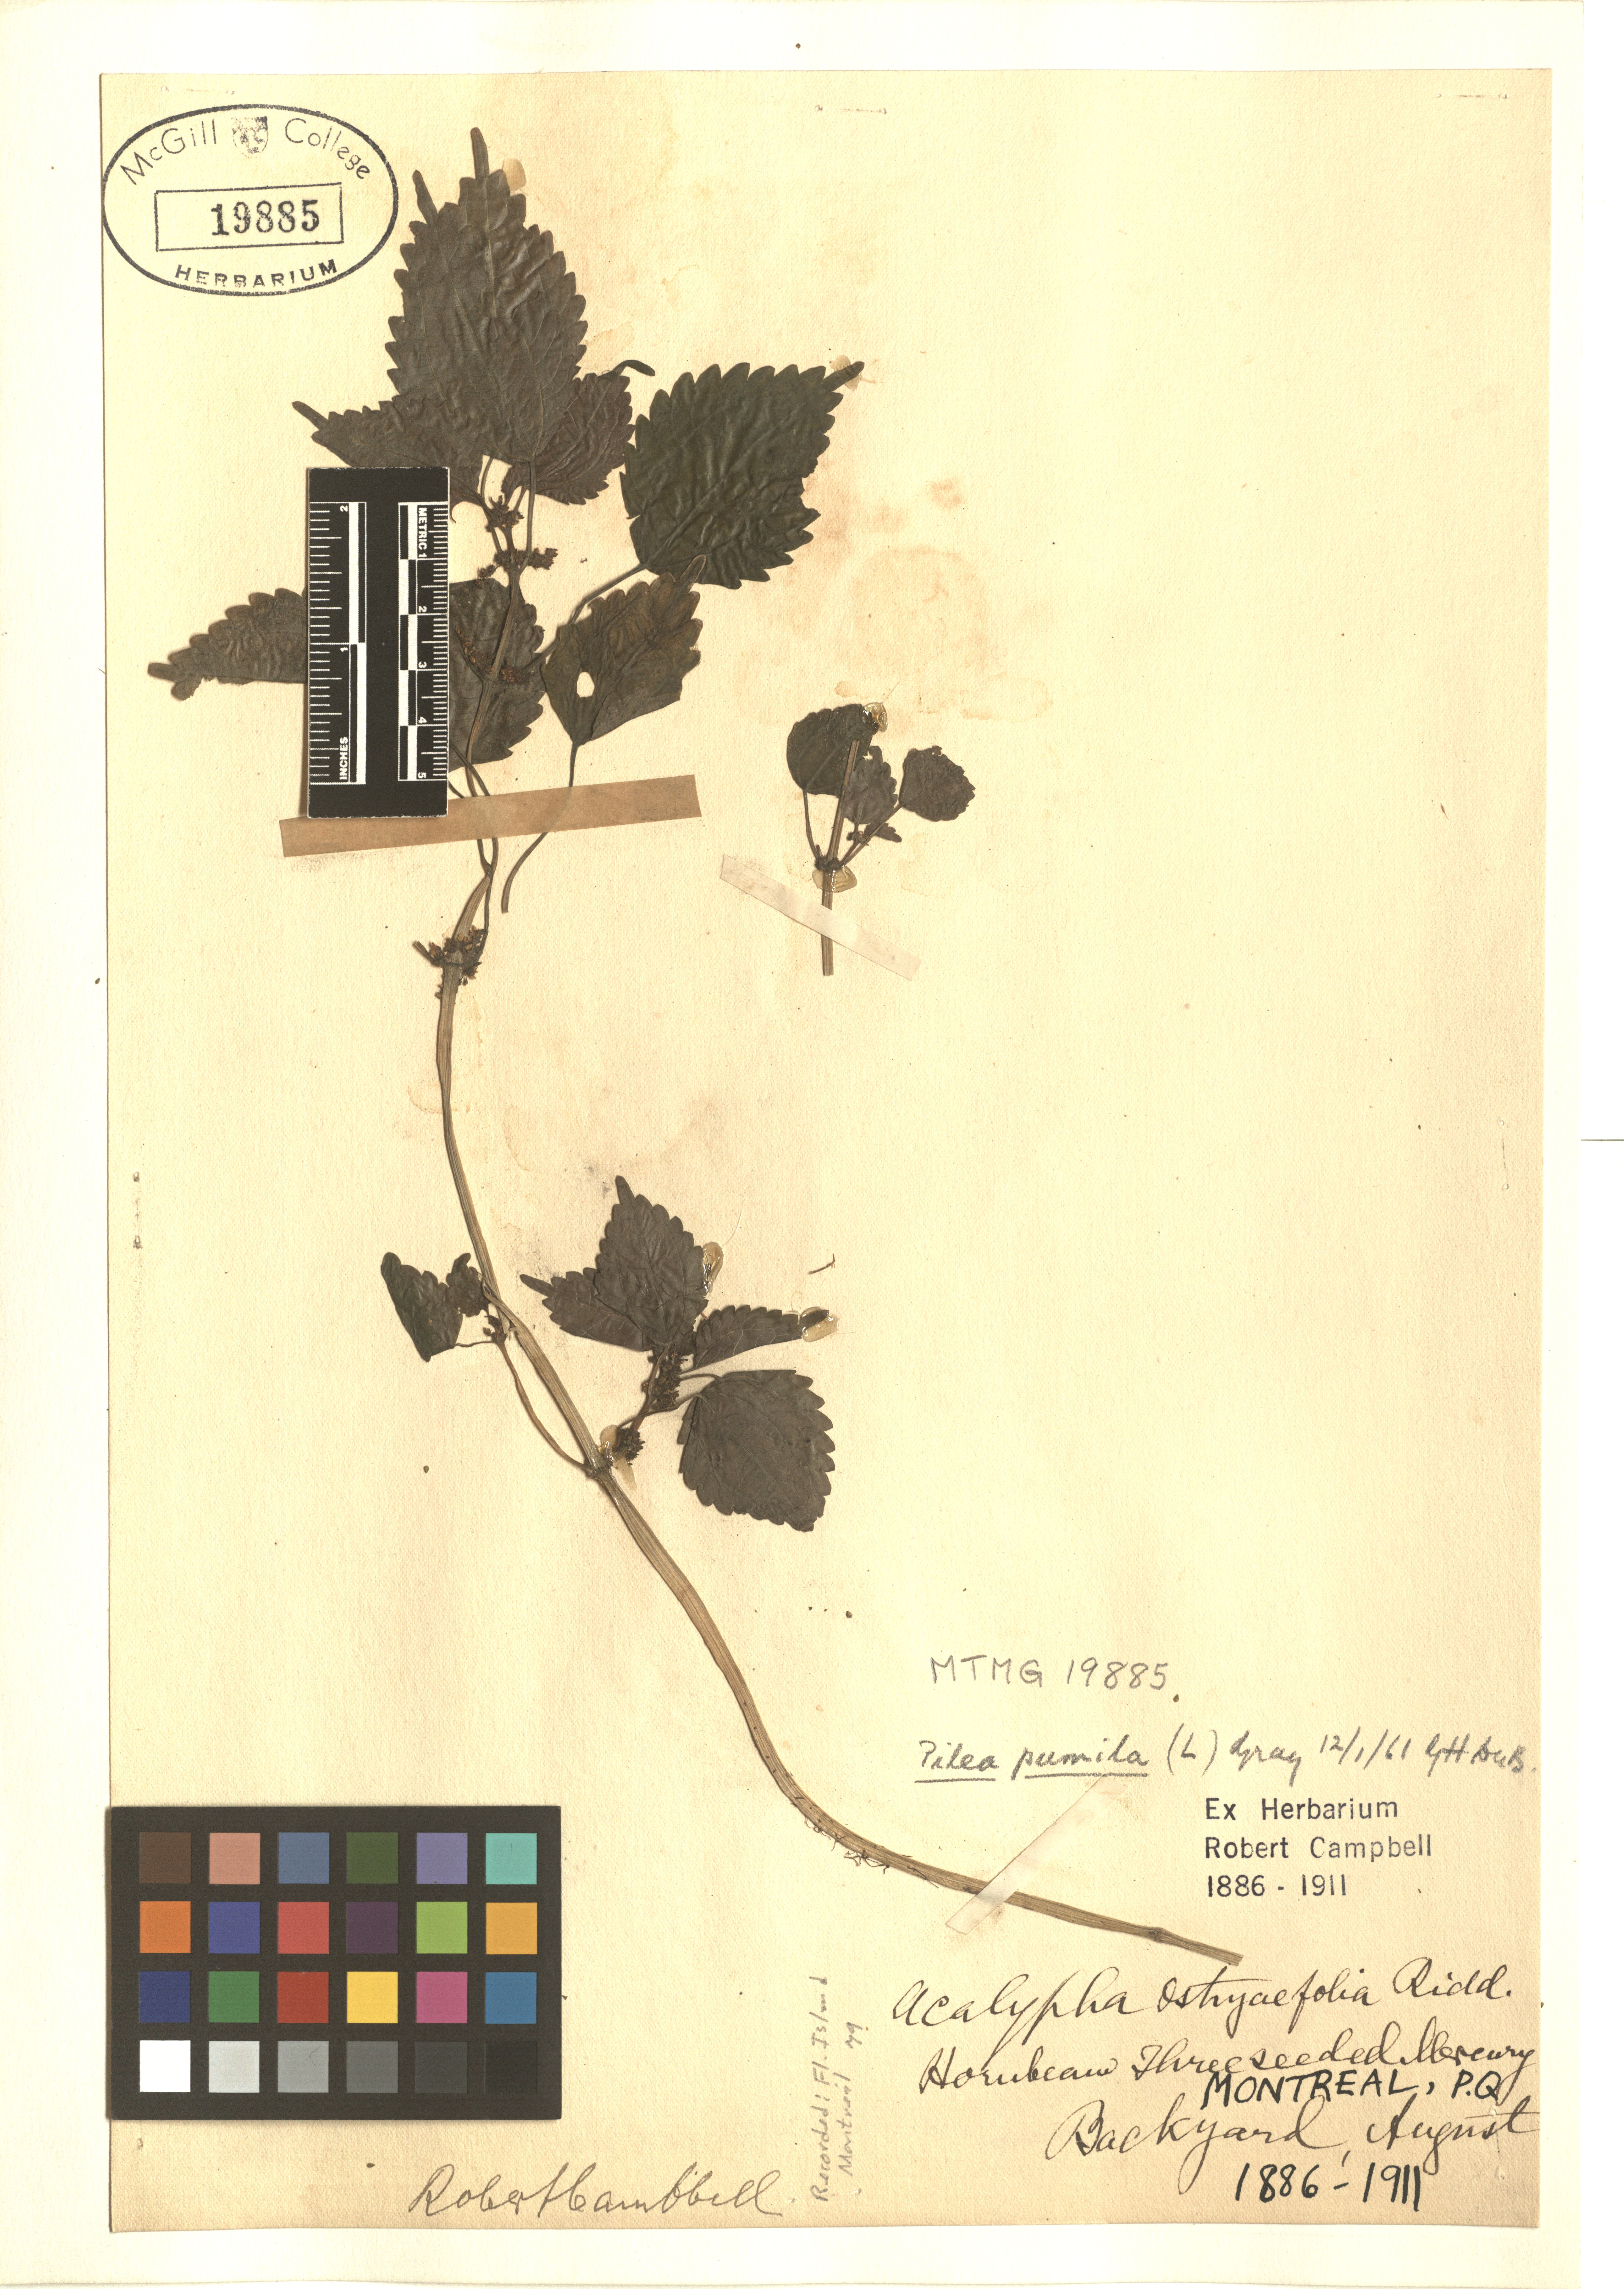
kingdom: Plantae
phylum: Tracheophyta
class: Magnoliopsida
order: Rosales
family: Urticaceae
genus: Pilea
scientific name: Pilea pumila
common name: Clearweed
